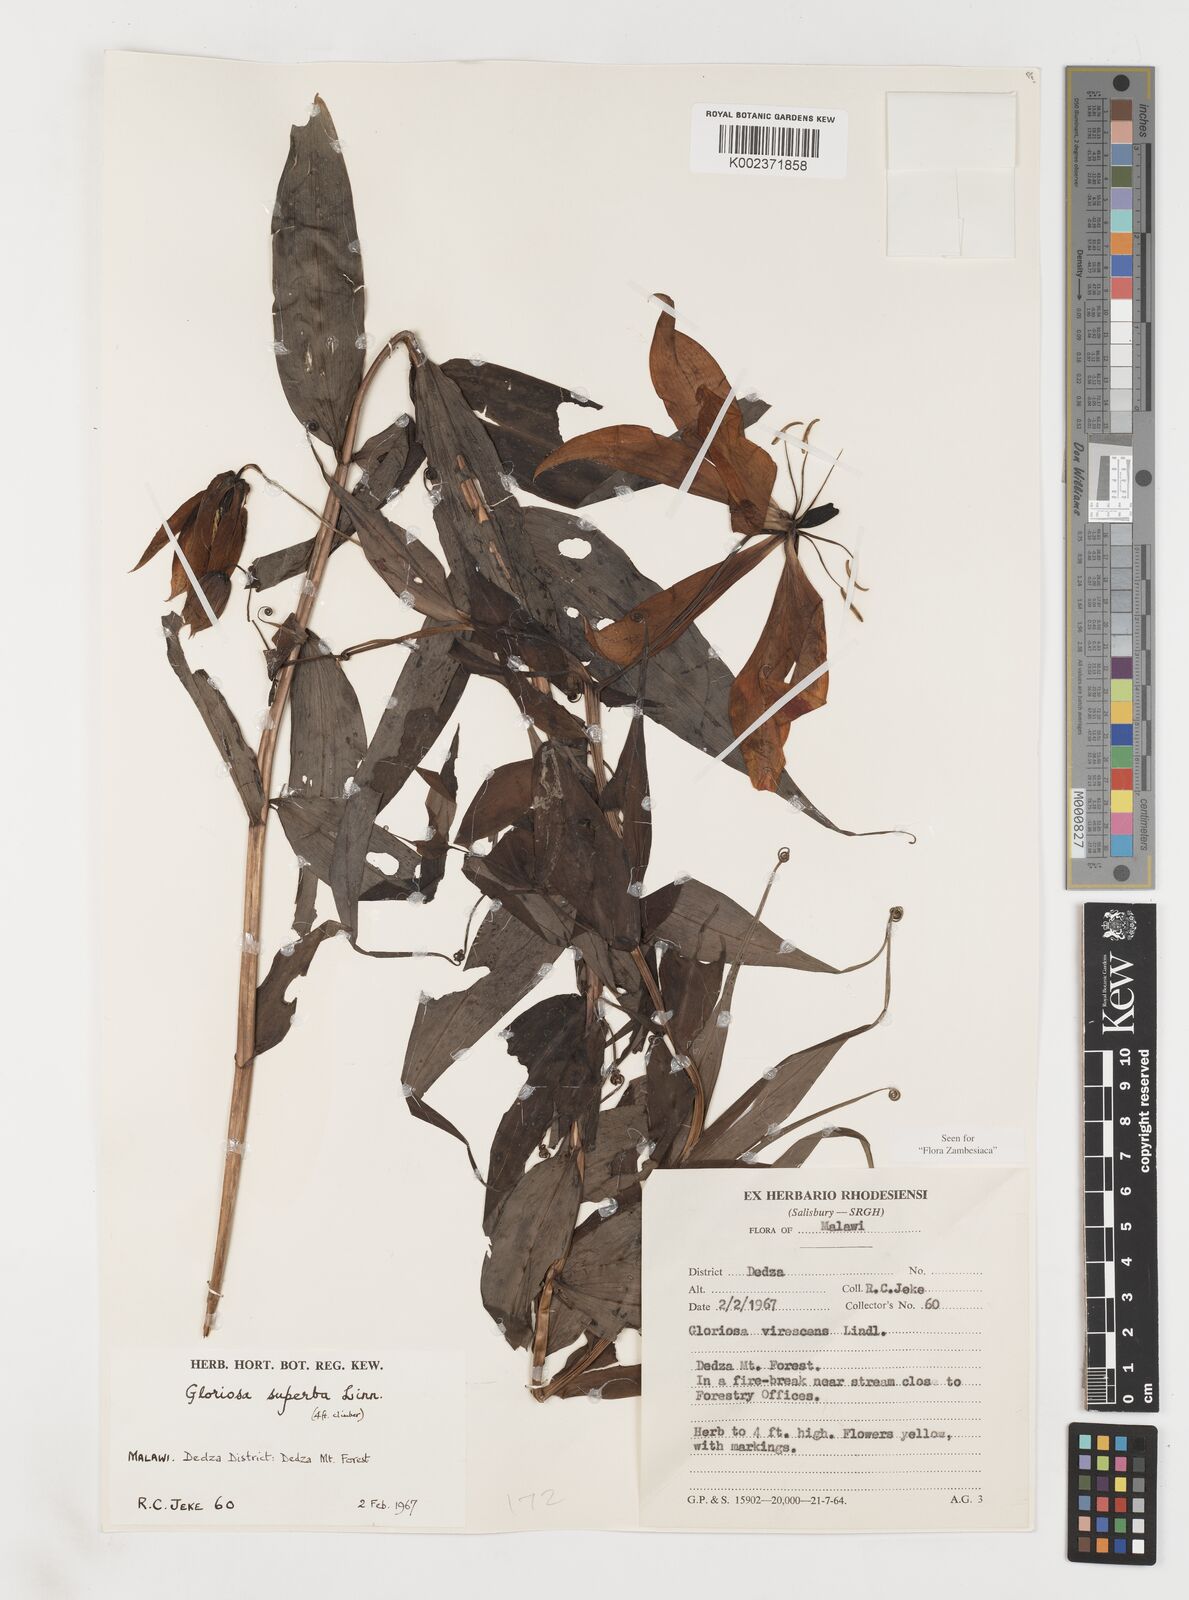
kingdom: Plantae
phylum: Tracheophyta
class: Liliopsida
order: Liliales
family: Colchicaceae
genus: Gloriosa
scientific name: Gloriosa simplex
